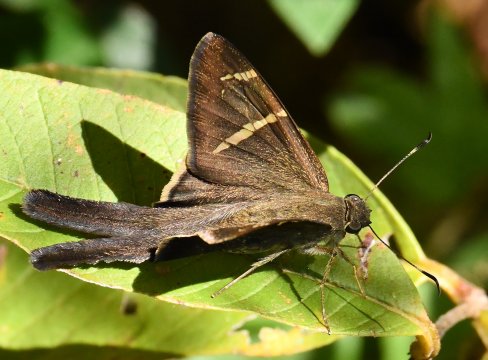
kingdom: Animalia
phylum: Arthropoda
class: Insecta
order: Lepidoptera
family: Hesperiidae
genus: Urbanus
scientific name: Urbanus tanna
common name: Tanna Longtail
